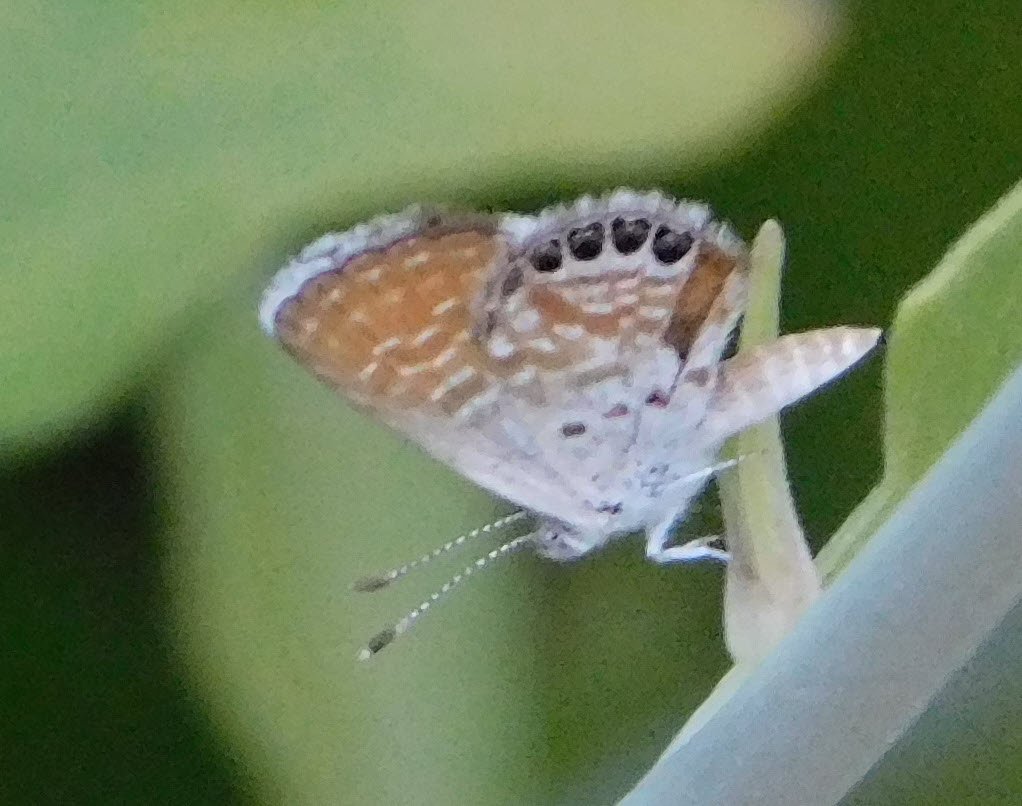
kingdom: Animalia
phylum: Arthropoda
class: Insecta
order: Lepidoptera
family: Lycaenidae
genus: Brephidium
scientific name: Brephidium exilis
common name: Western Pygmy-Blue
